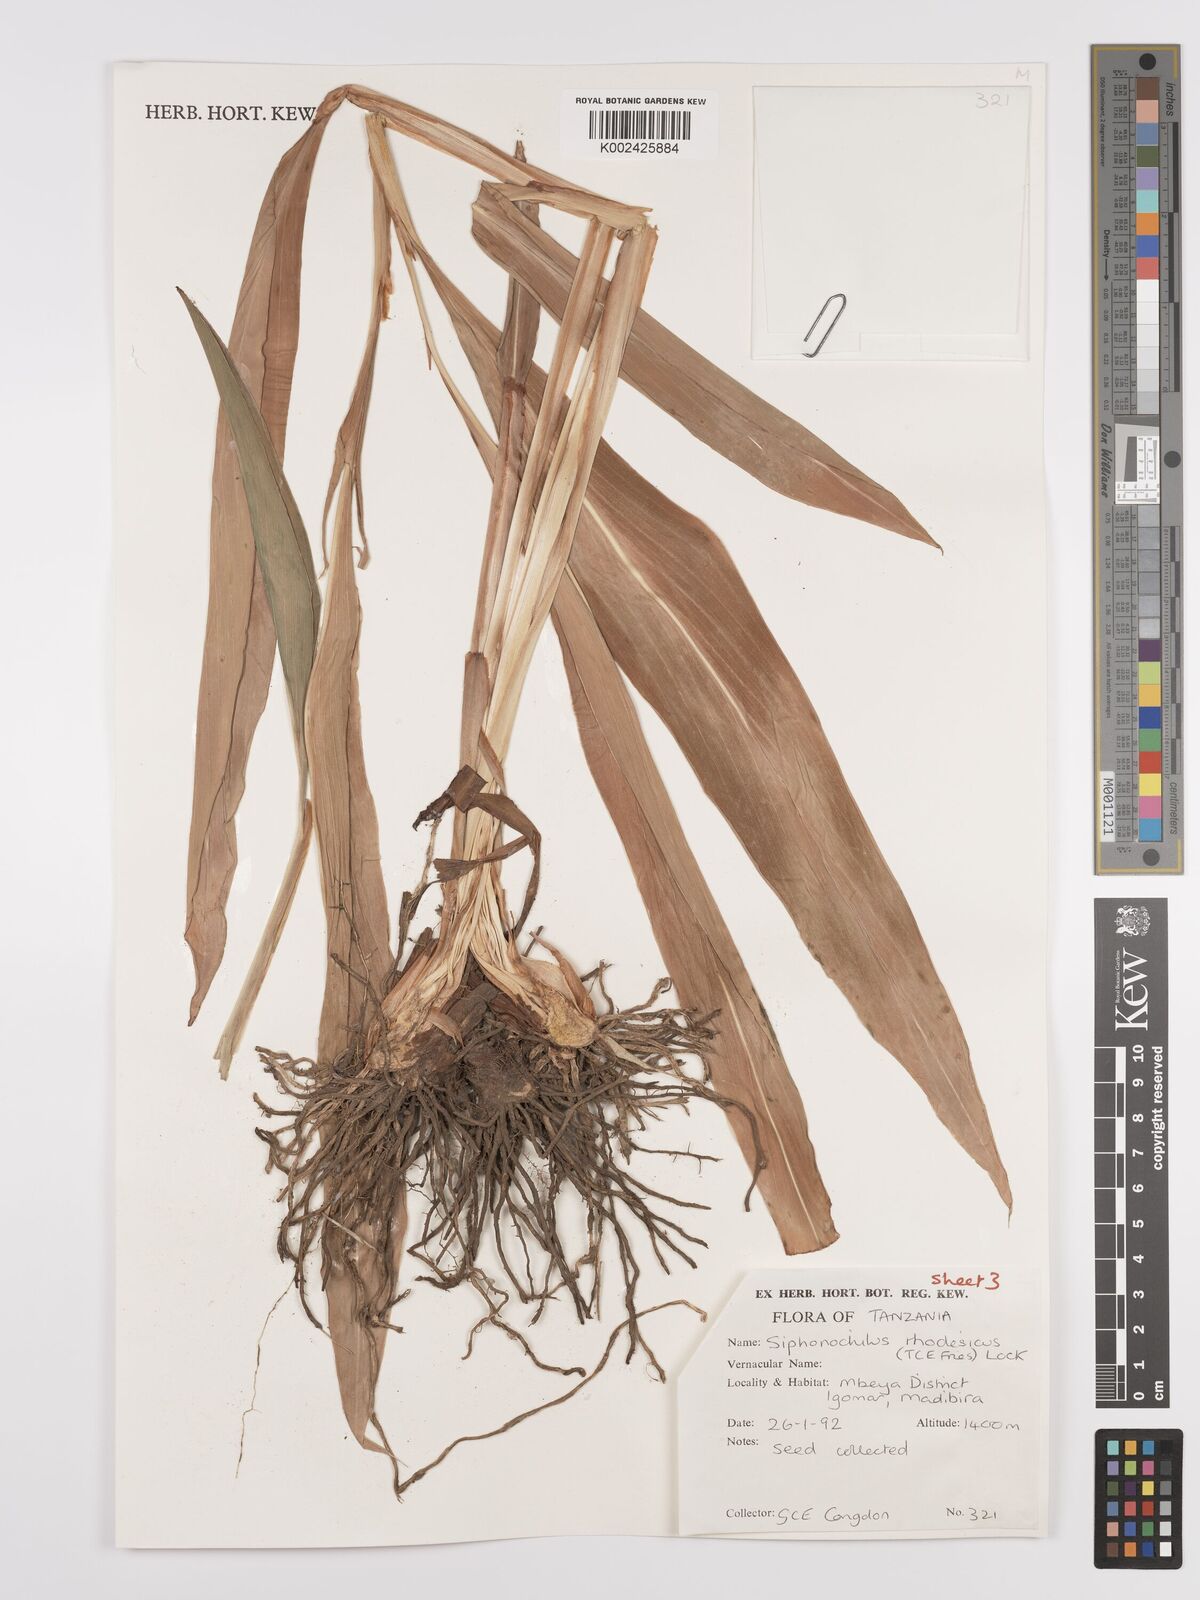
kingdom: Plantae
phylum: Tracheophyta
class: Liliopsida
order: Zingiberales
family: Zingiberaceae
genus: Siphonochilus
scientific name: Siphonochilus rhodesicus
